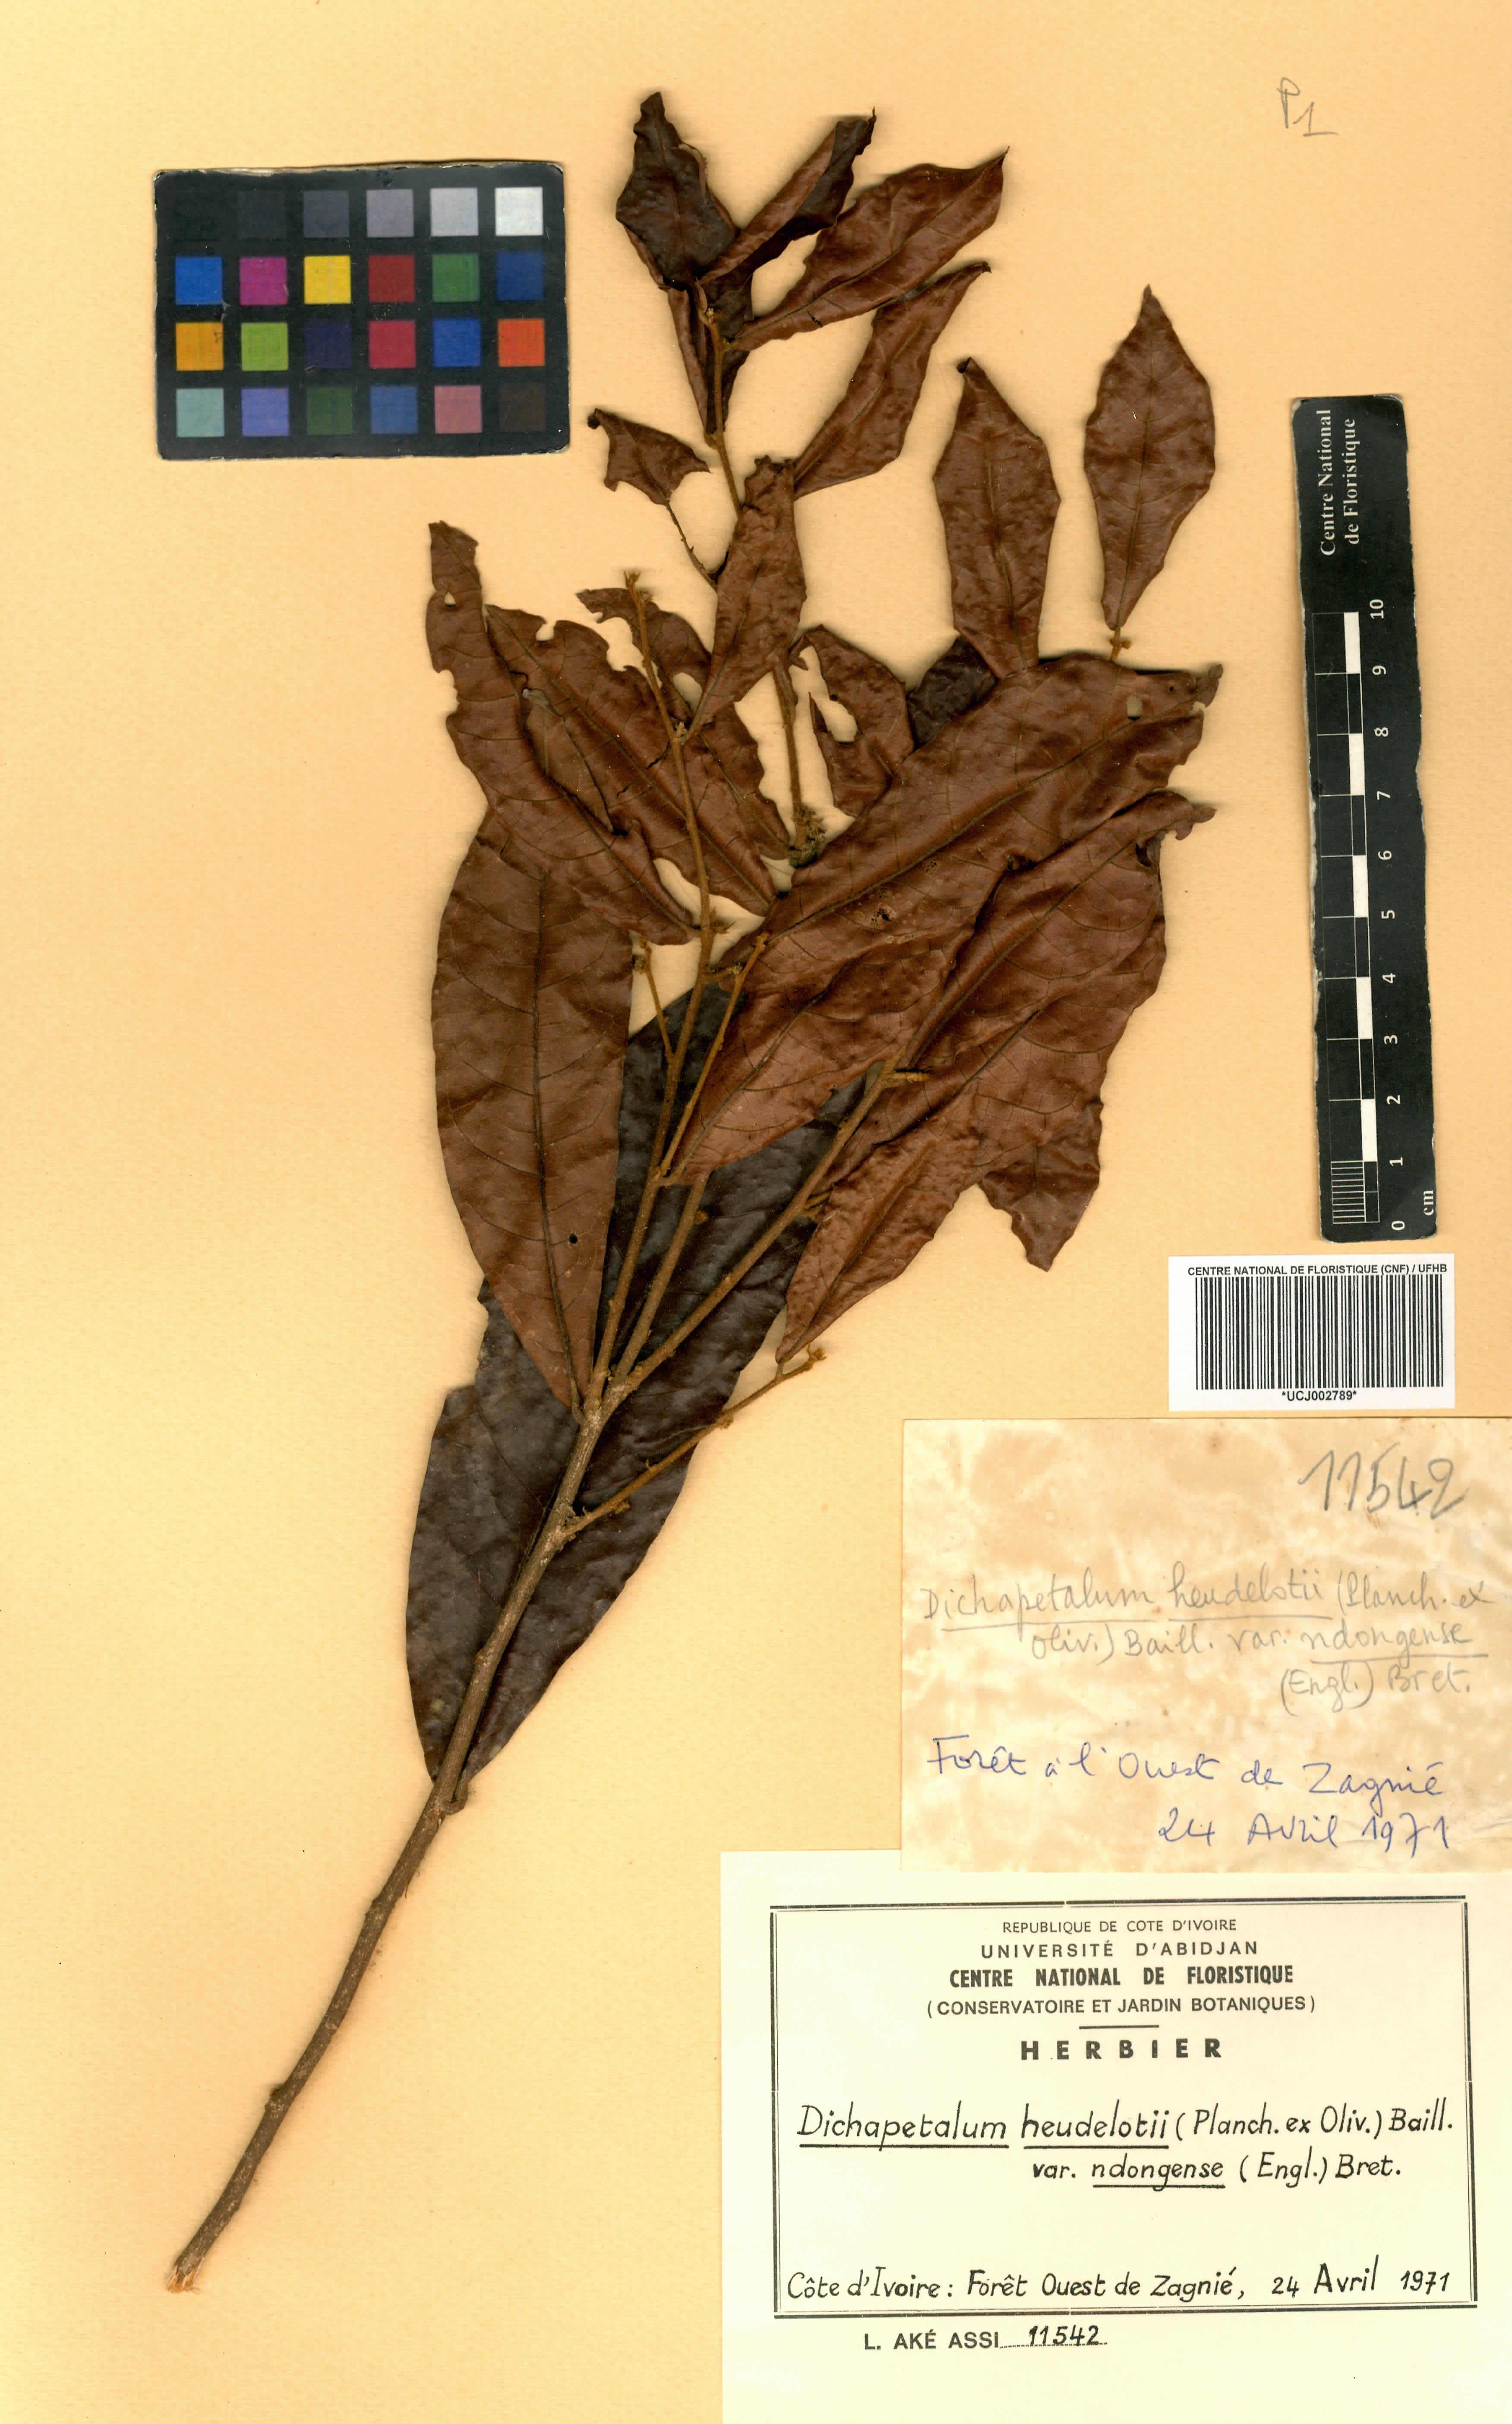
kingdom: Plantae
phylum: Tracheophyta
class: Magnoliopsida
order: Malpighiales
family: Dichapetalaceae
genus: Dichapetalum
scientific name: Dichapetalum heudelotii
